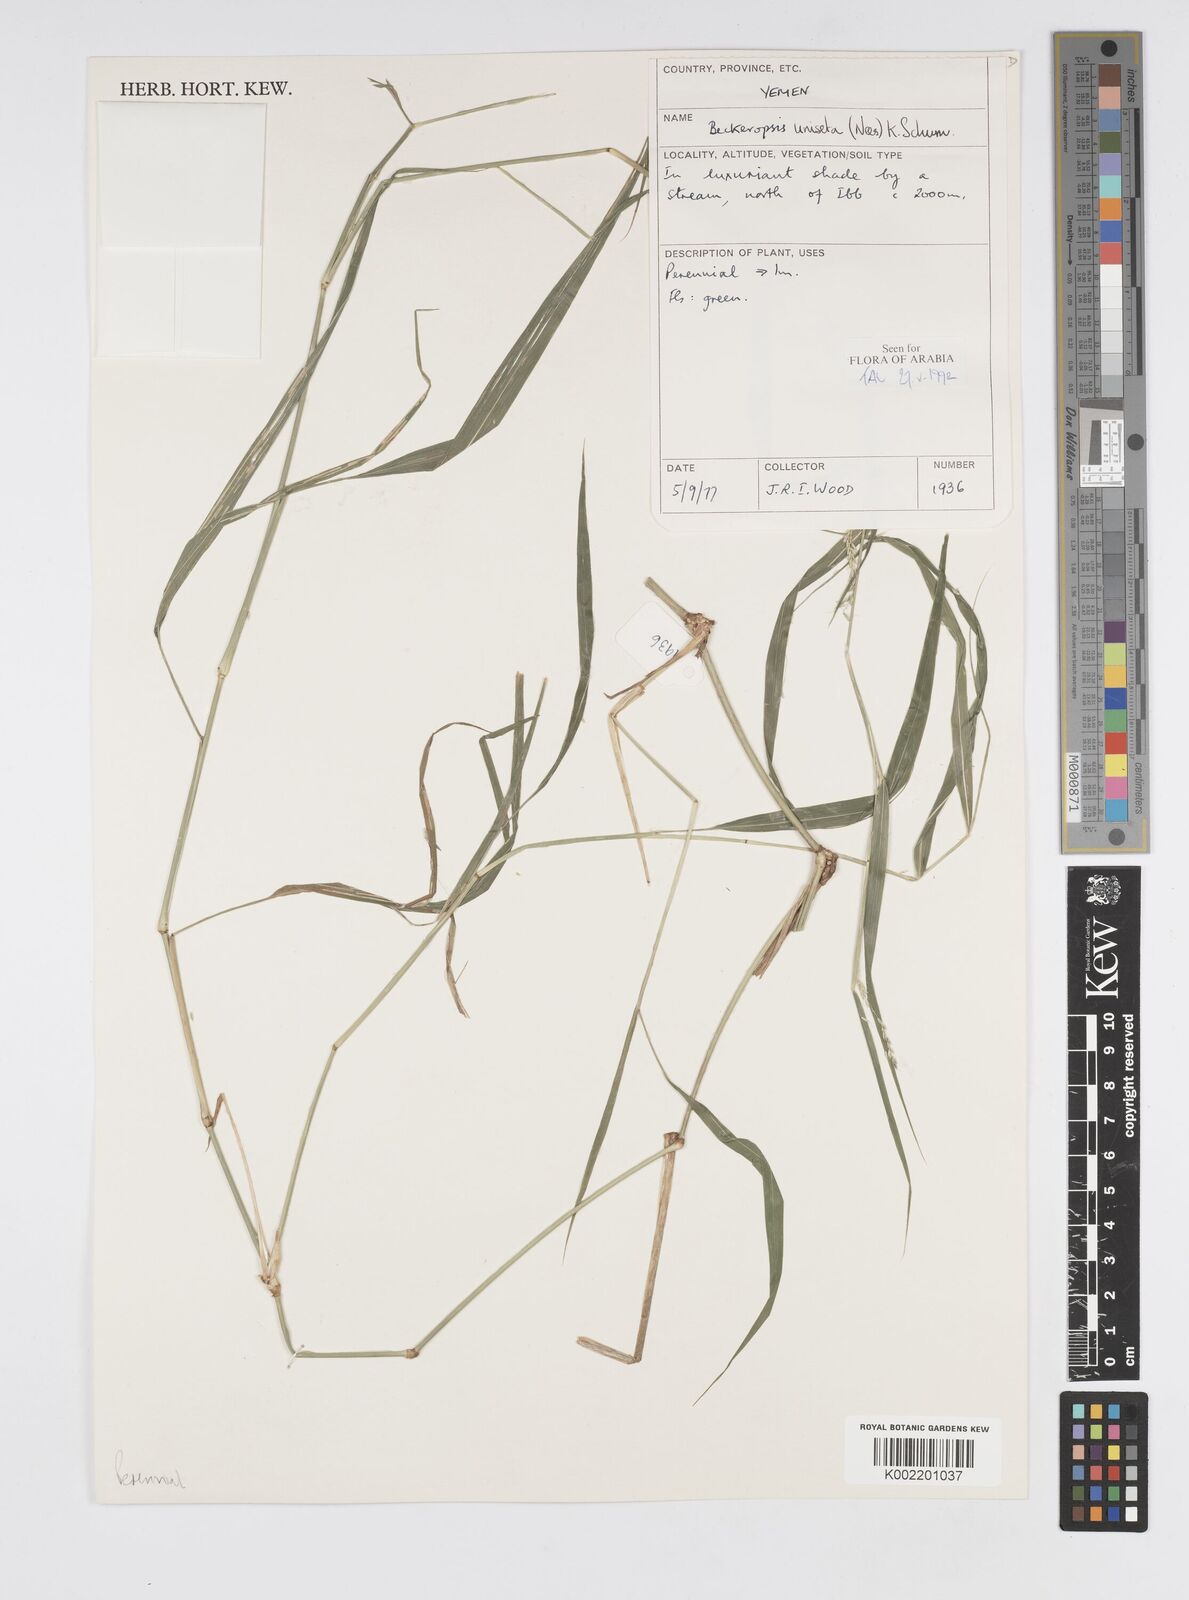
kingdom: Plantae
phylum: Tracheophyta
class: Liliopsida
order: Poales
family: Poaceae
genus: Cenchrus
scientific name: Cenchrus unisetus
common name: Natal grass
